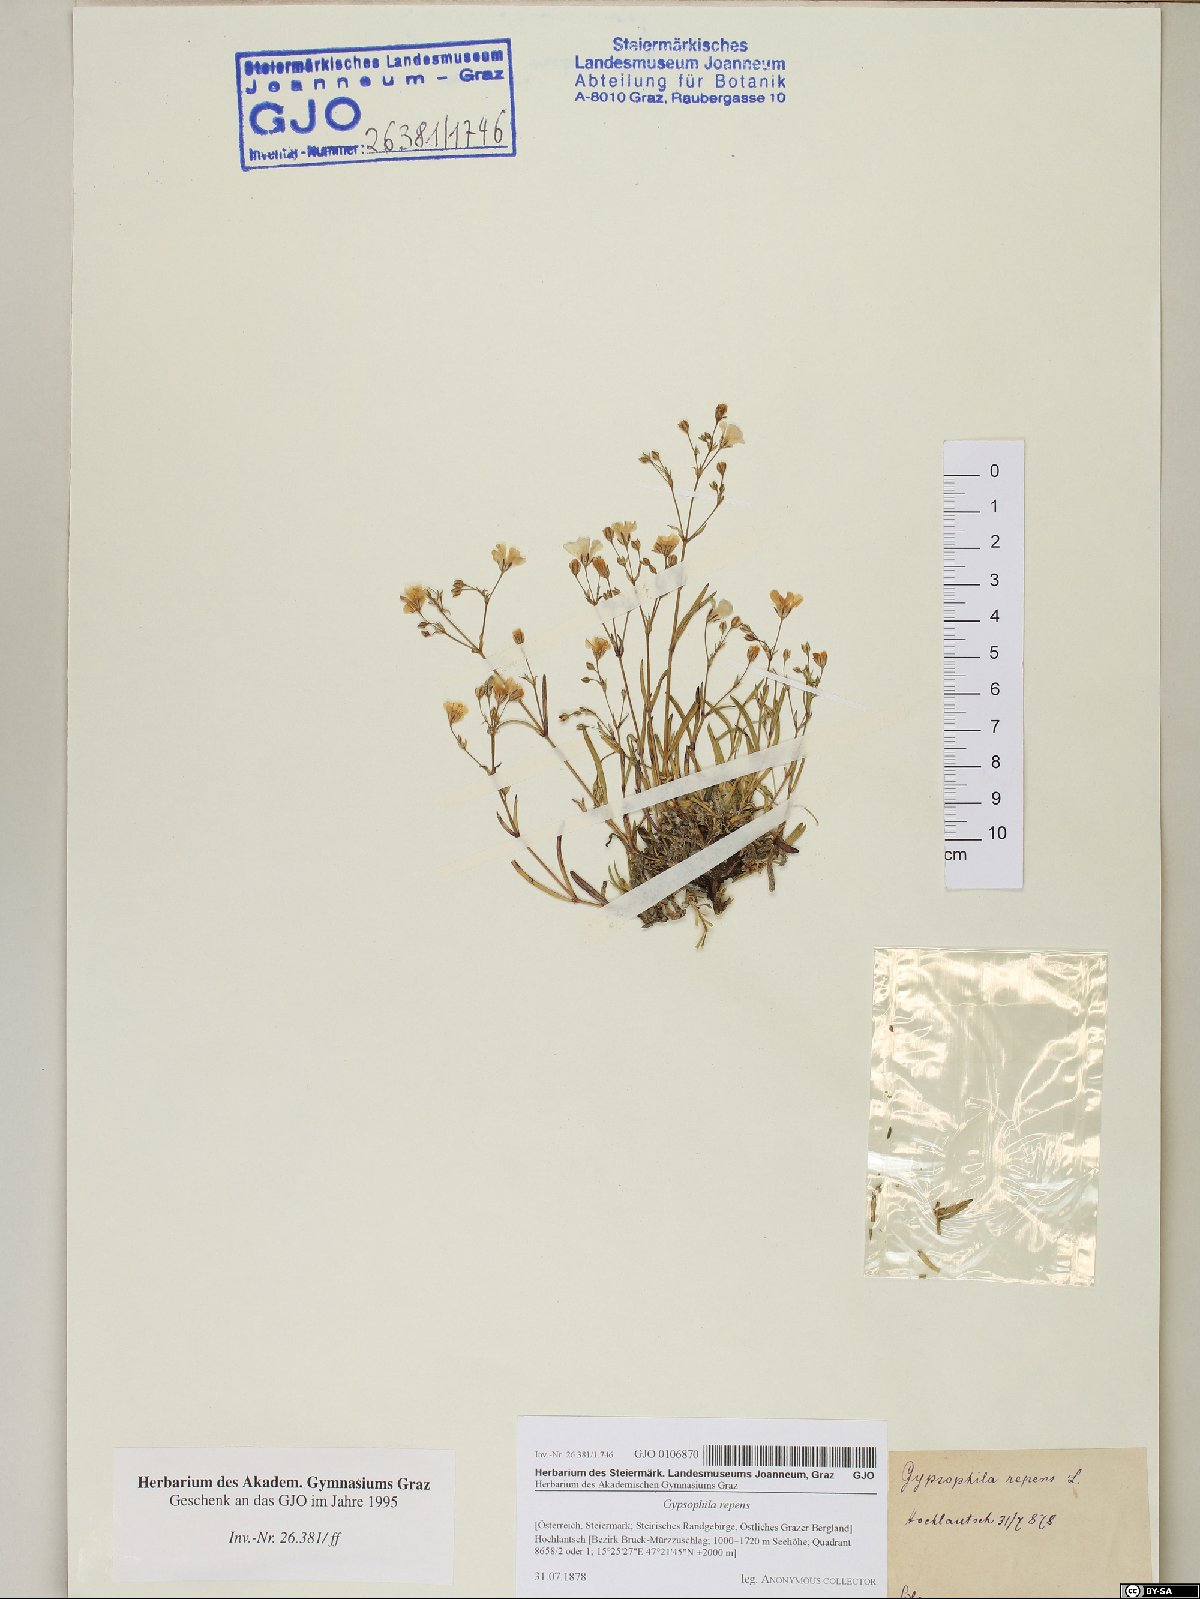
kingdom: Plantae
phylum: Tracheophyta
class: Magnoliopsida
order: Caryophyllales
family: Caryophyllaceae
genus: Gypsophila
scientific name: Gypsophila repens
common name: Creeping baby's-breath
